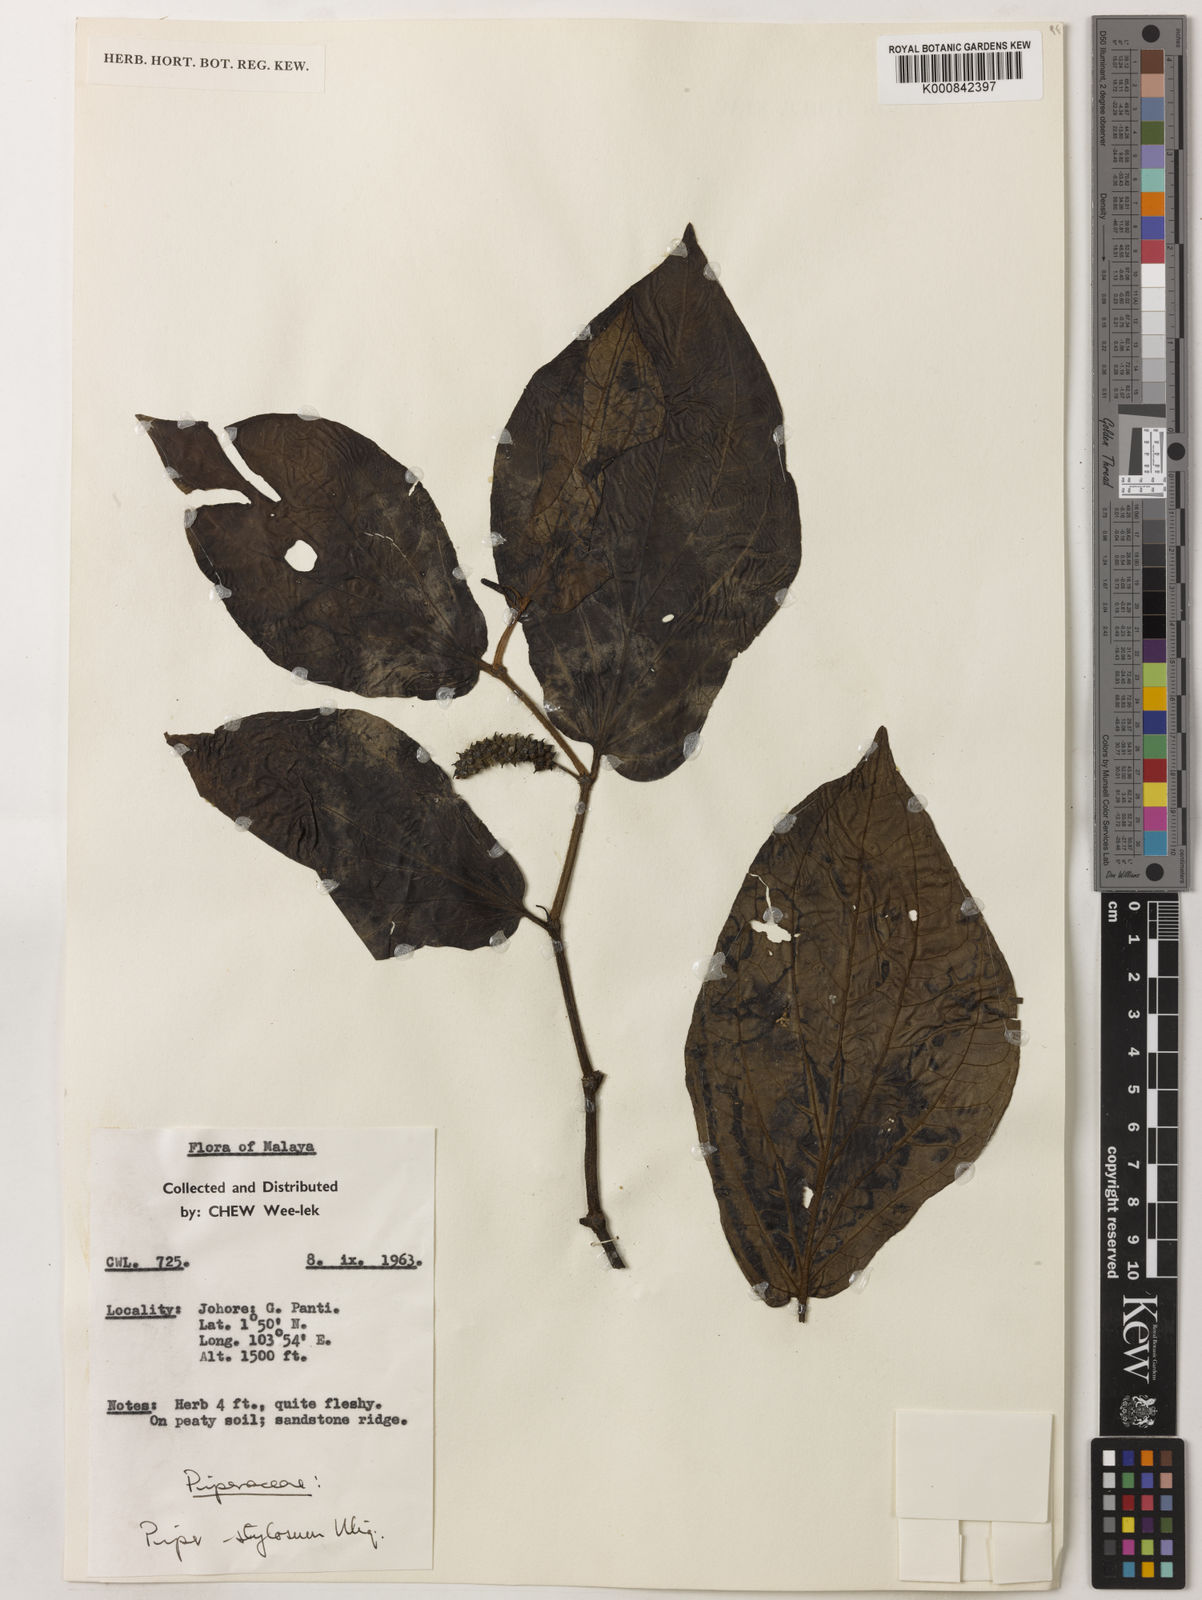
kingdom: Plantae
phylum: Tracheophyta
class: Magnoliopsida
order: Piperales
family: Piperaceae
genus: Piper
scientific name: Piper rostratum
